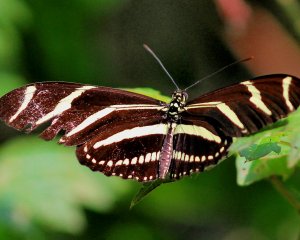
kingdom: Animalia
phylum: Arthropoda
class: Insecta
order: Lepidoptera
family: Nymphalidae
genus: Heliconius
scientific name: Heliconius charithonia
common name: Zebra Longwing
